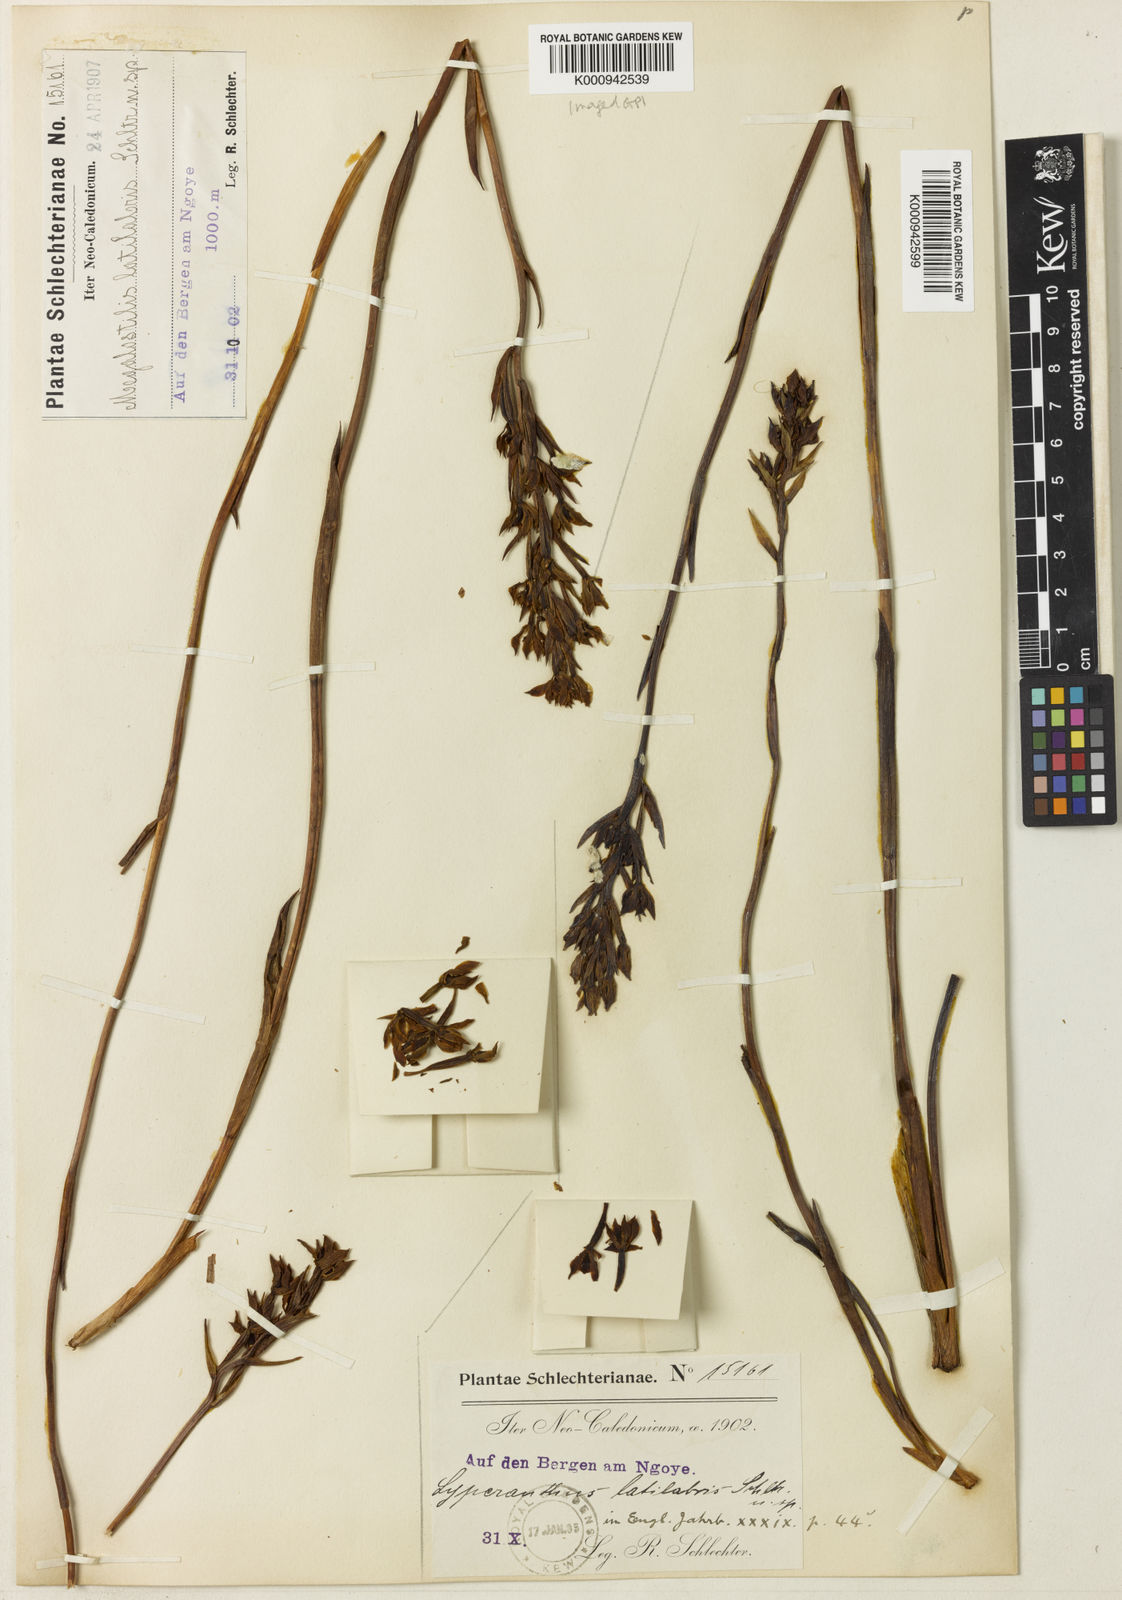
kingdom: Plantae
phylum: Tracheophyta
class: Liliopsida
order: Asparagales
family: Orchidaceae
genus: Megastylis
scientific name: Megastylis latilabris
